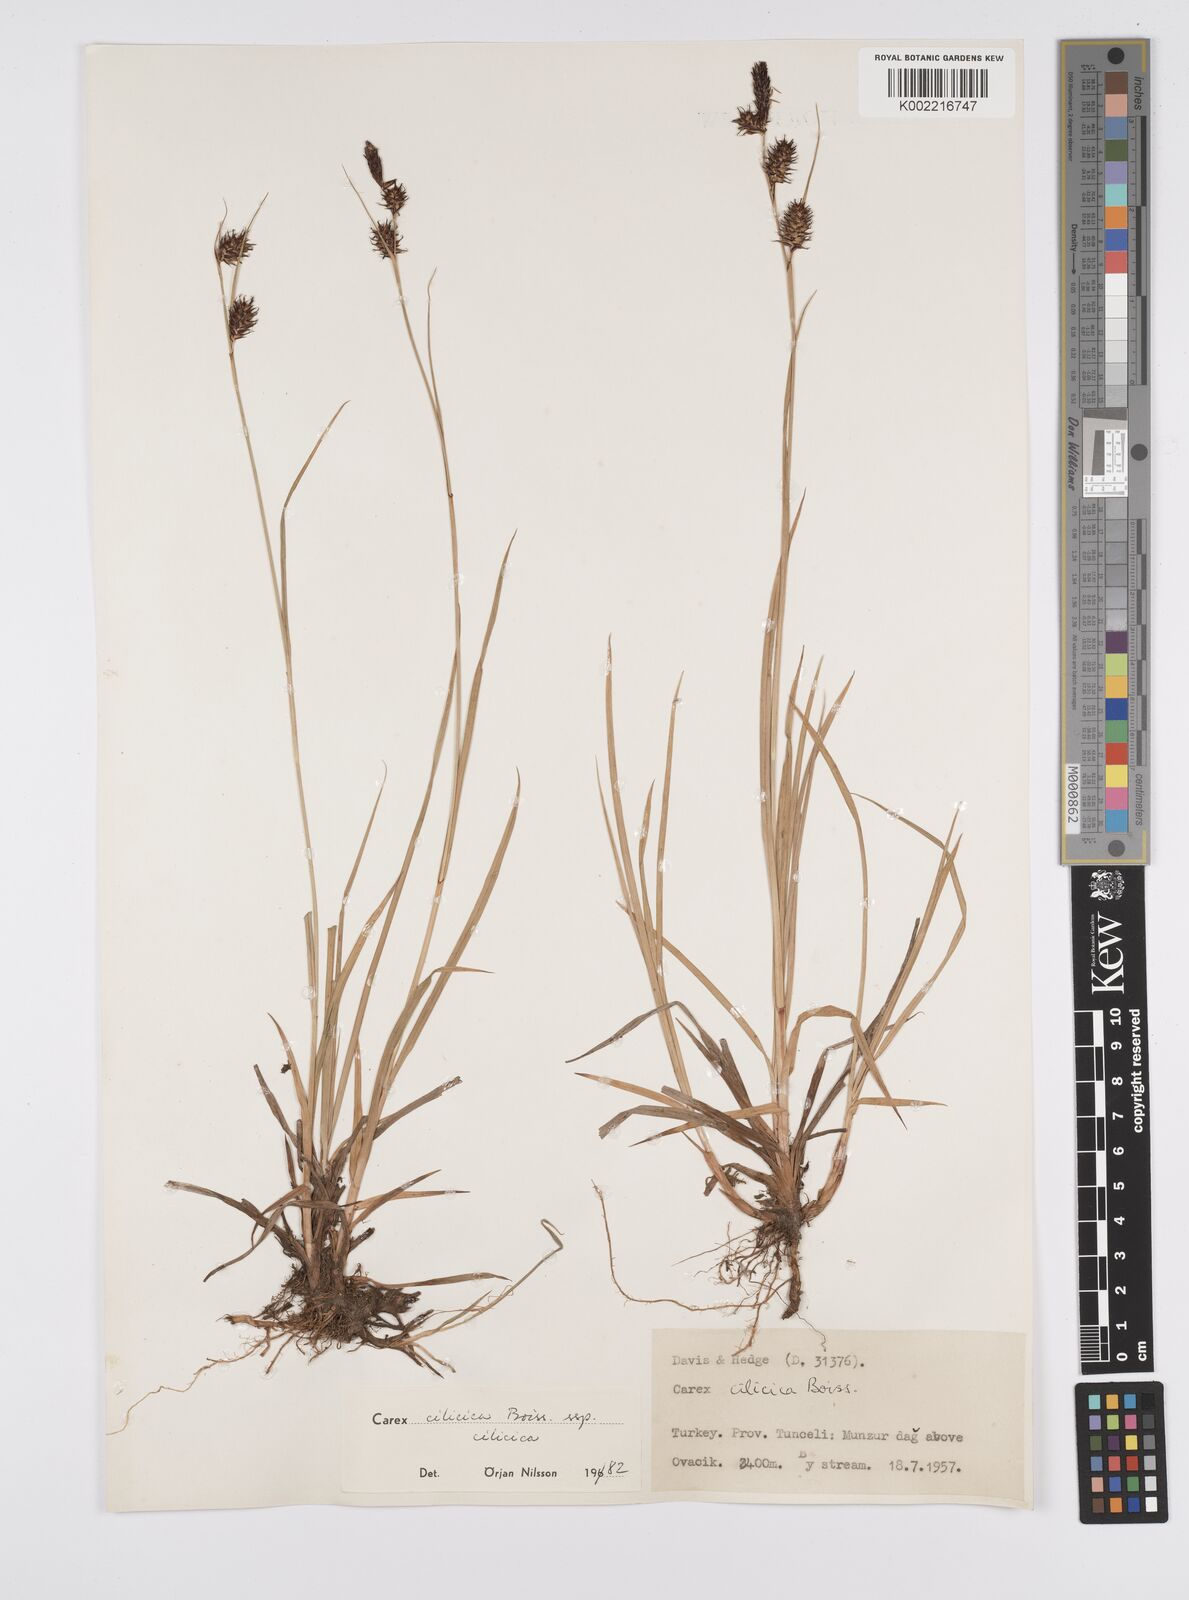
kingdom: Plantae
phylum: Tracheophyta
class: Liliopsida
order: Poales
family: Cyperaceae
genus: Carex
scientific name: Carex cilicica
